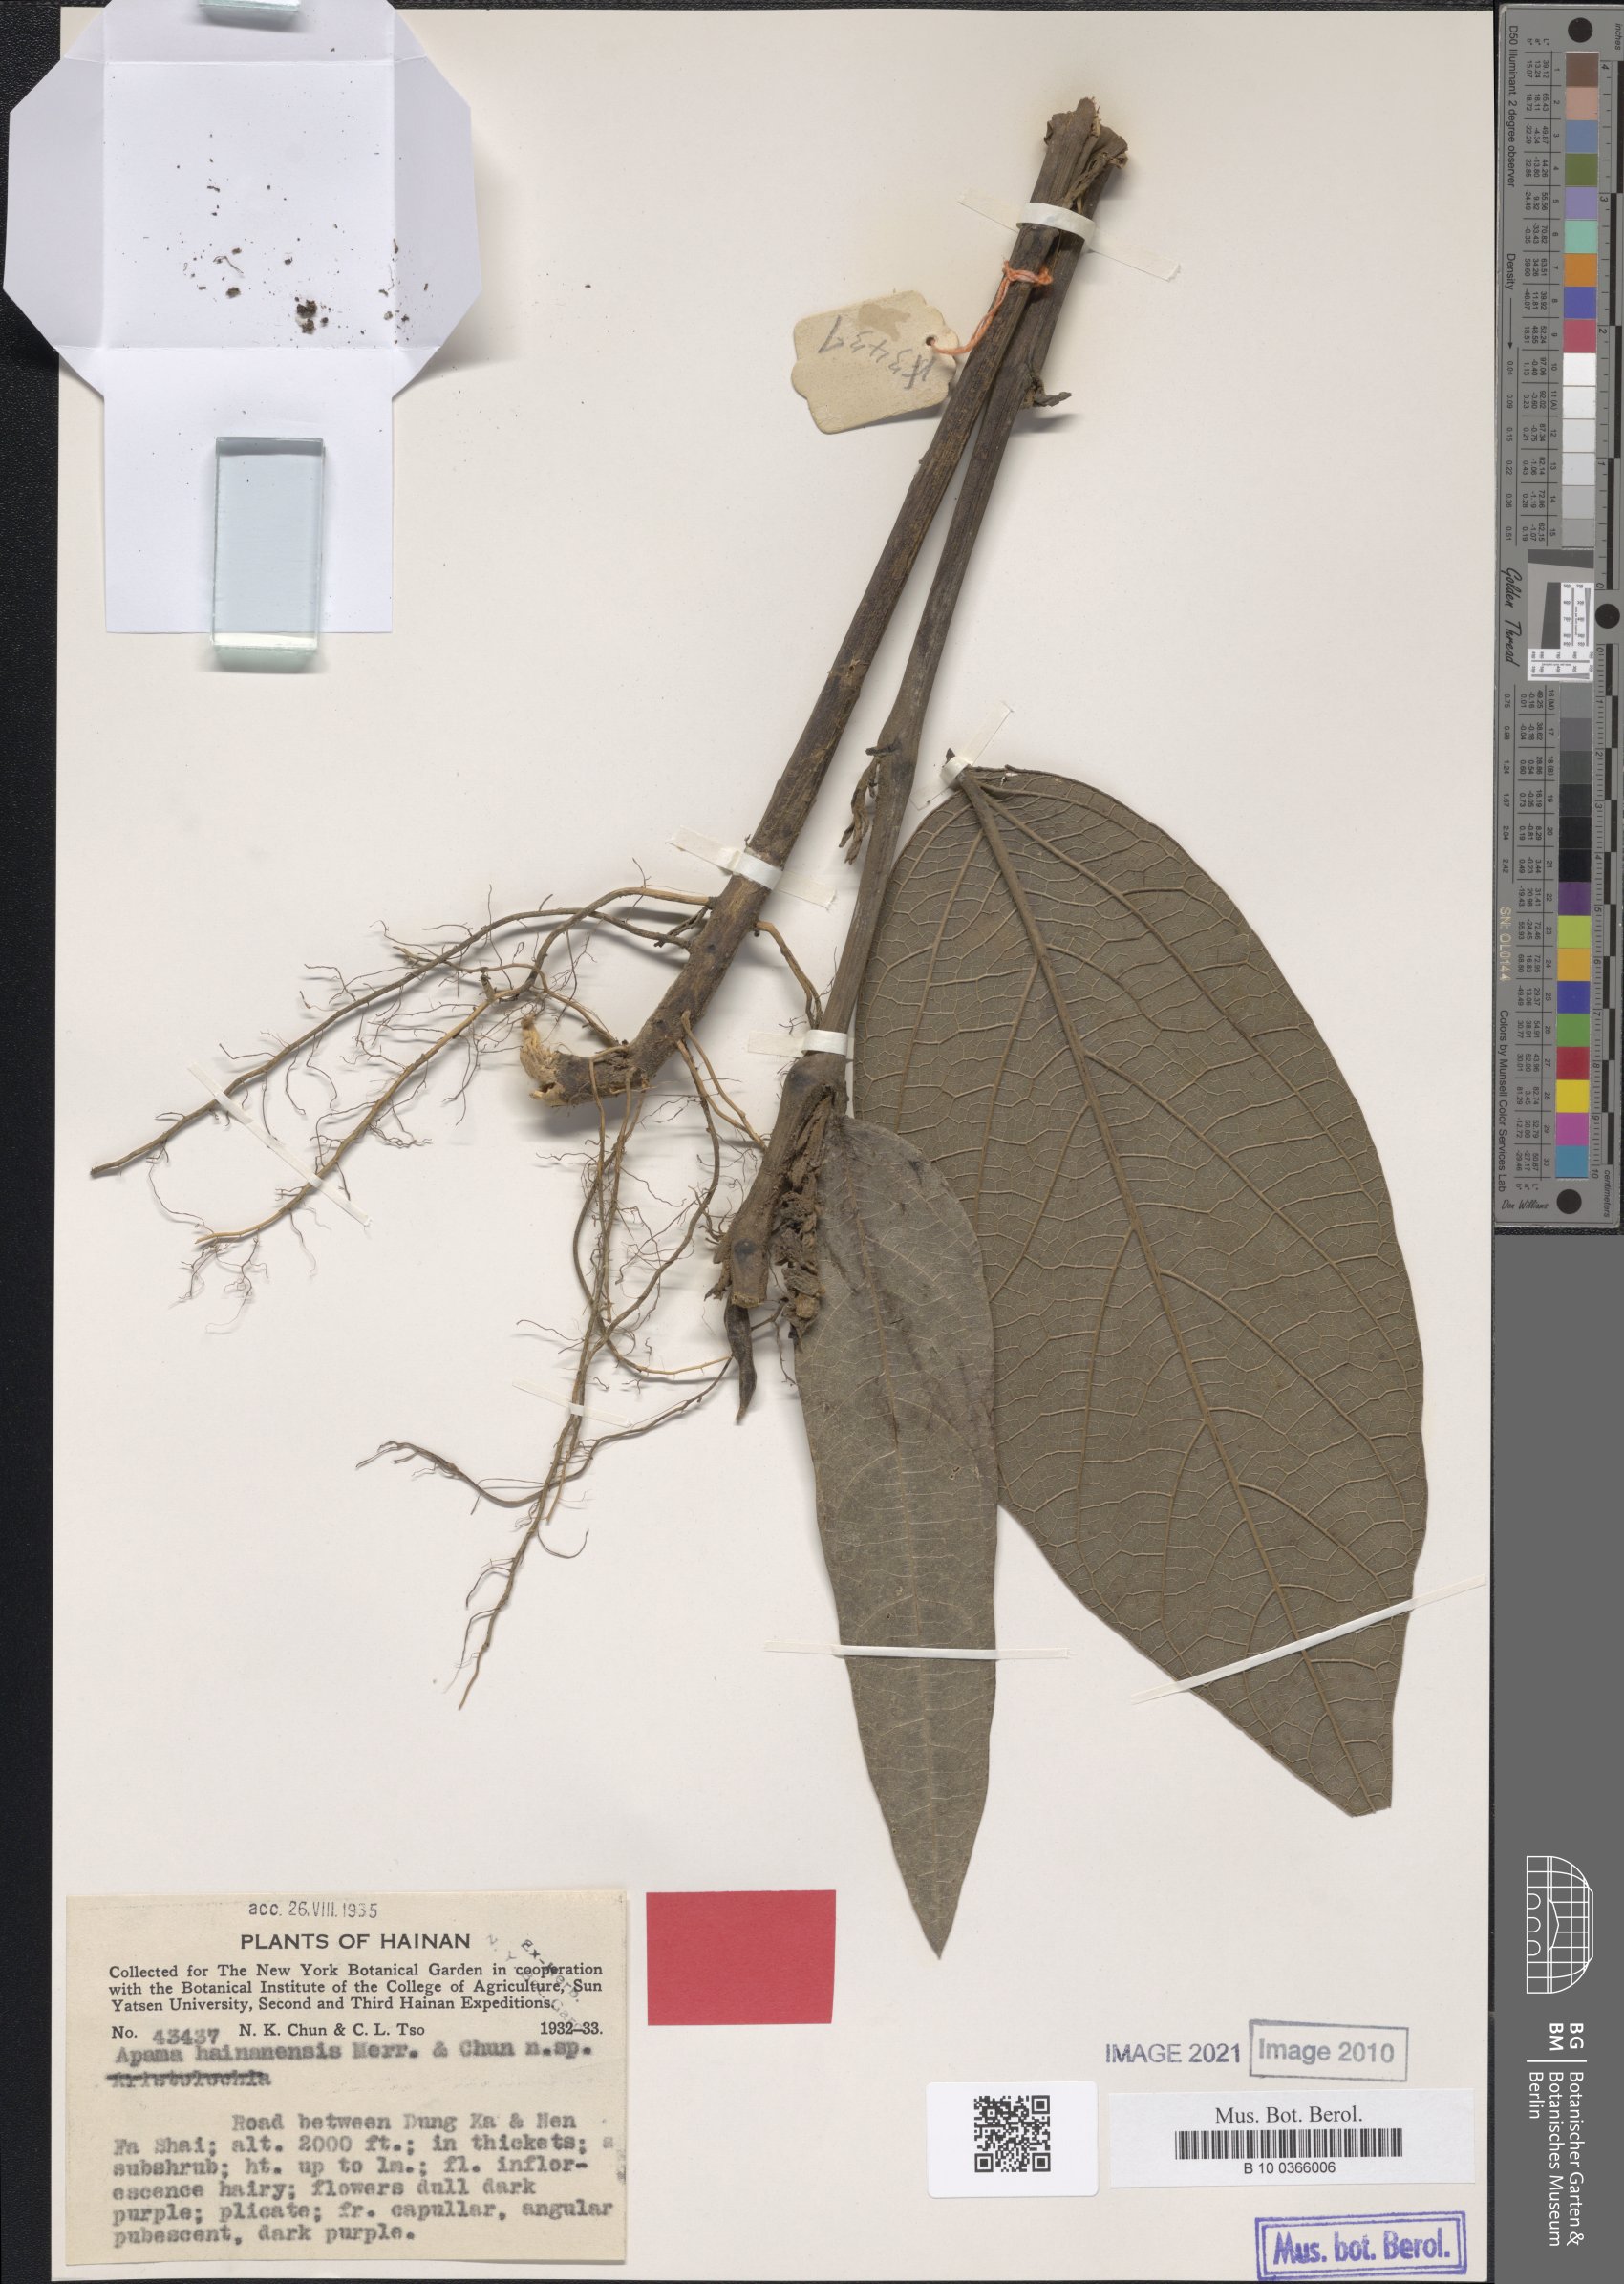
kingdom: Plantae
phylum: Tracheophyta
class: Magnoliopsida
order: Piperales
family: Aristolochiaceae
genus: Thottea
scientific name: Thottea hainanensis
